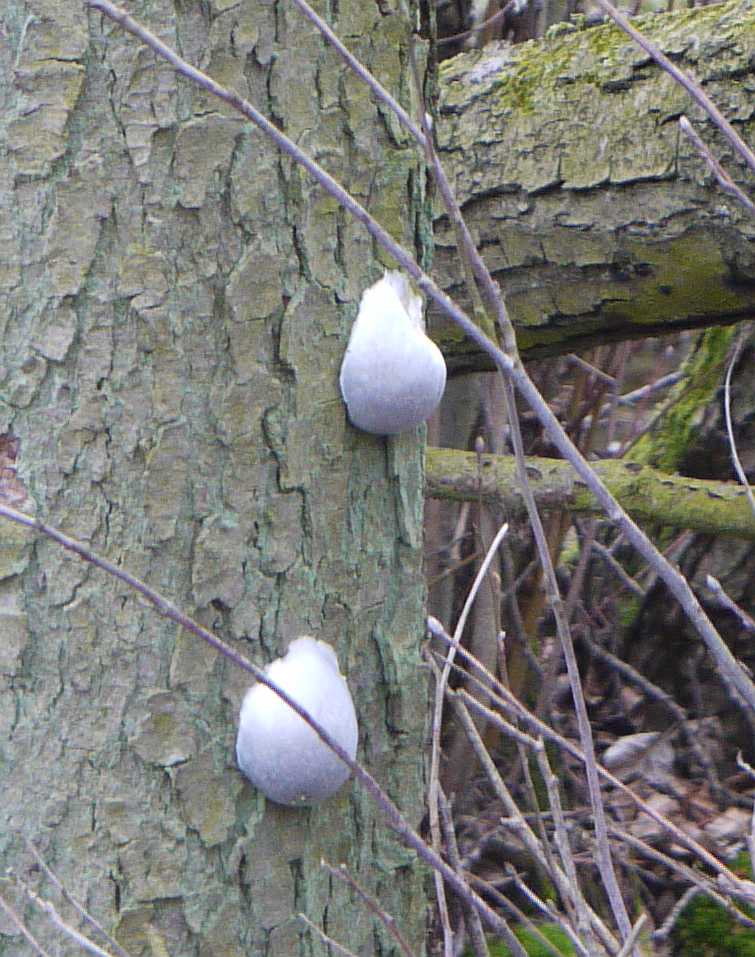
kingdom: Protozoa
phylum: Mycetozoa
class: Myxomycetes
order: Cribrariales
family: Tubiferaceae
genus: Reticularia
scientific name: Reticularia lycoperdon
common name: skinnende støvpude
